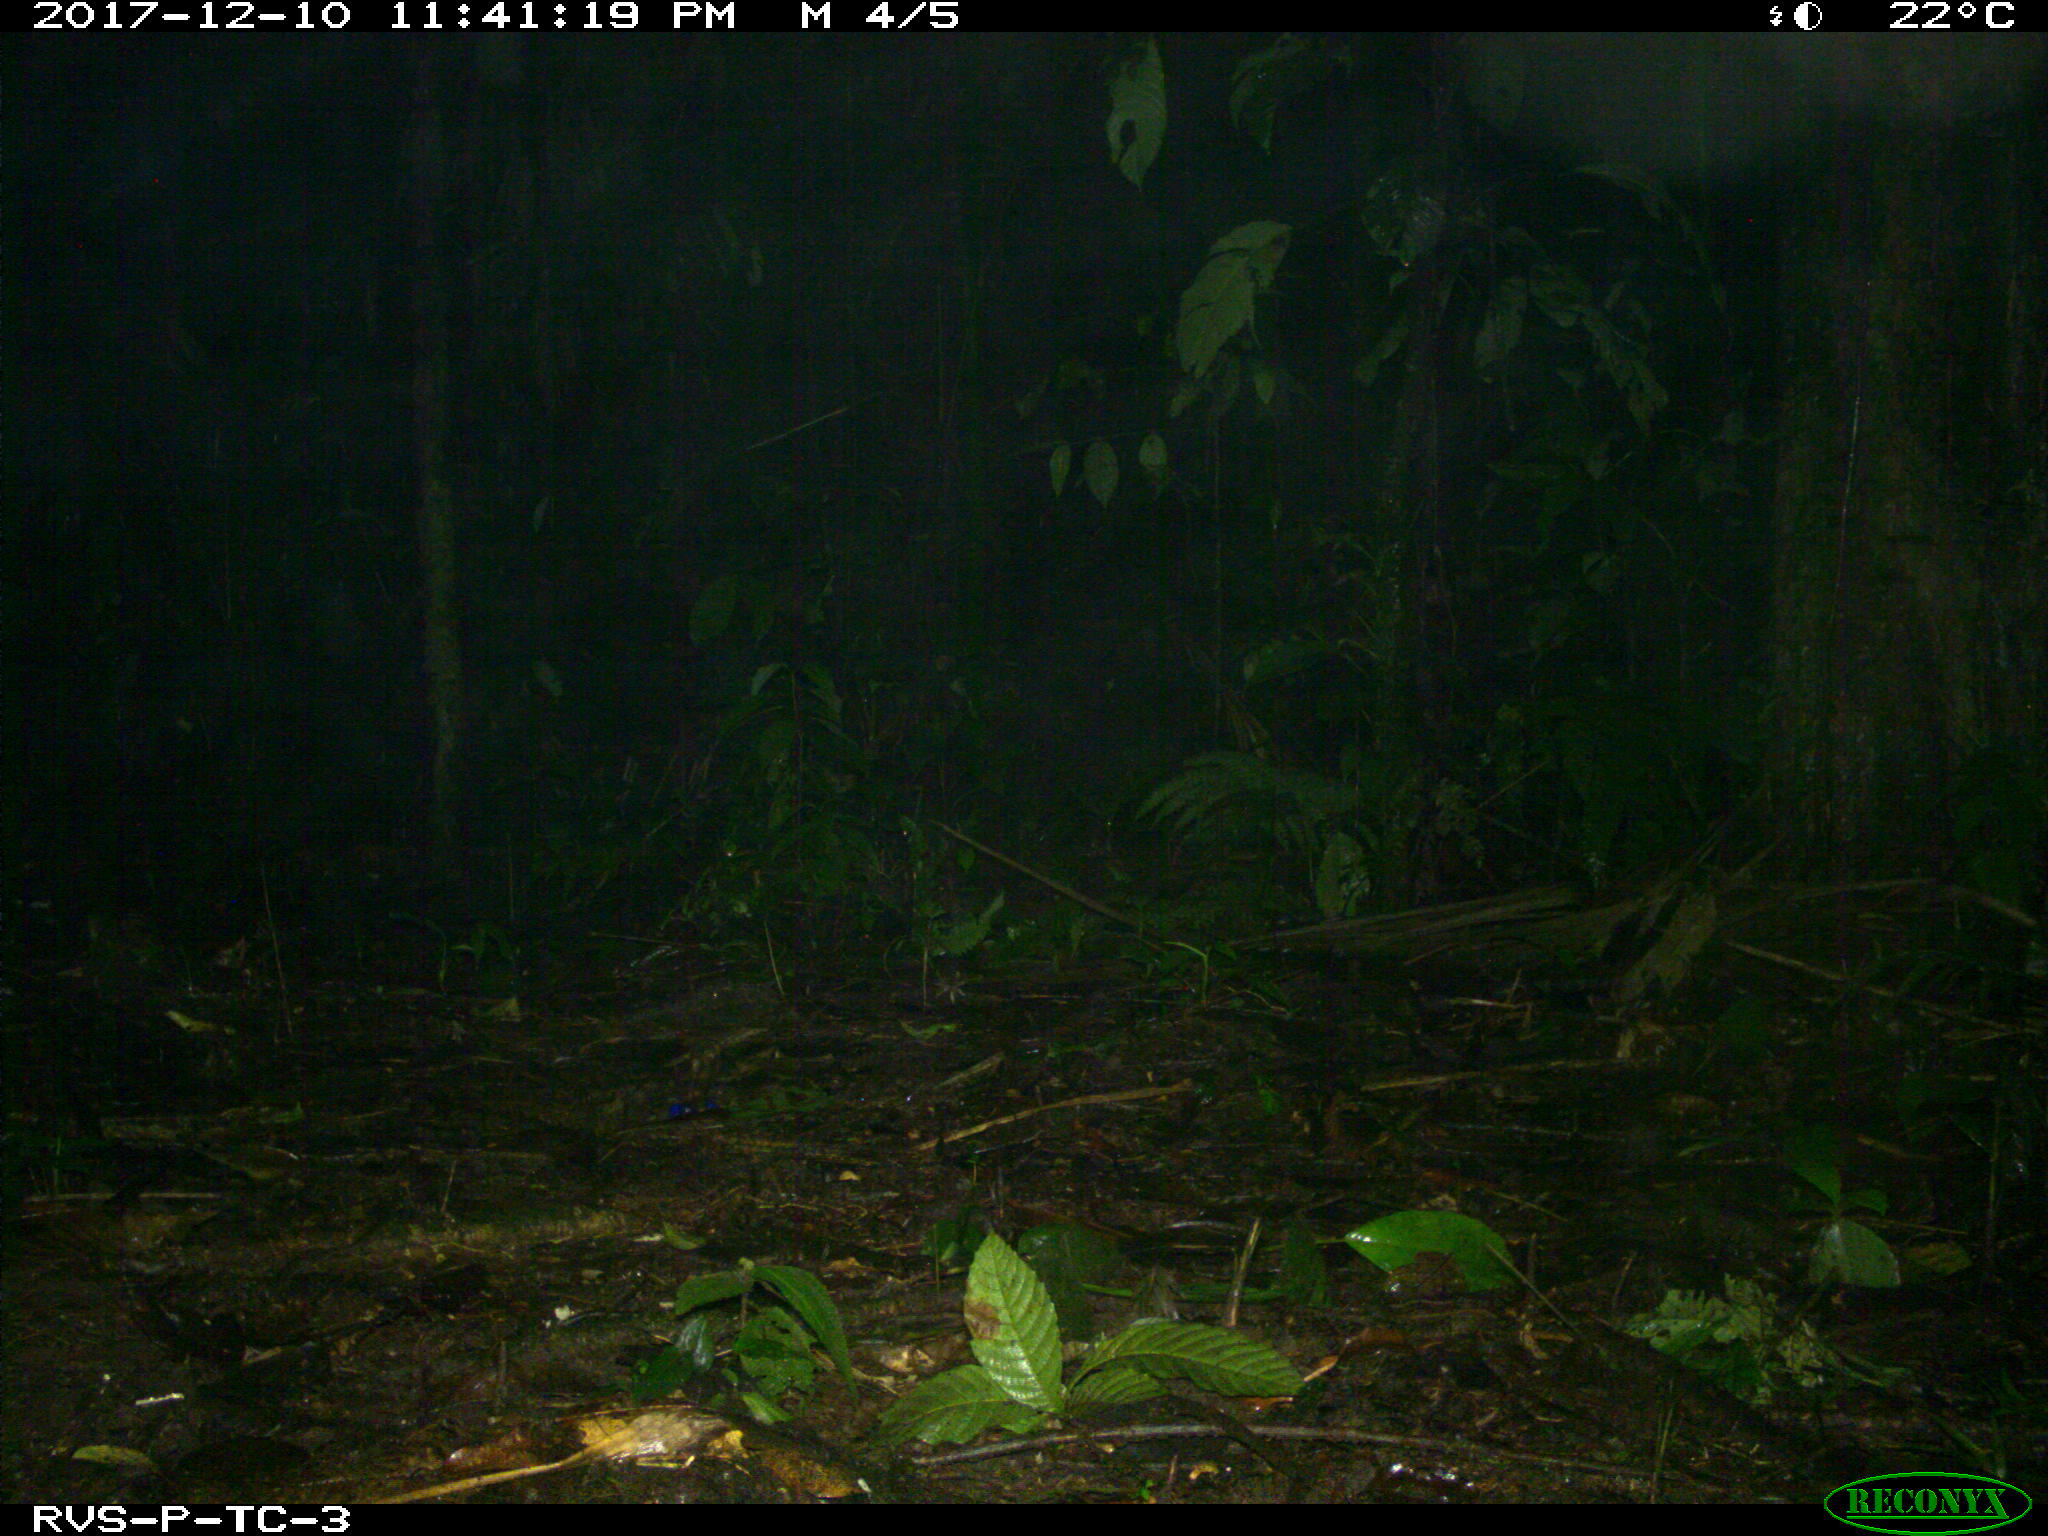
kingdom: Animalia
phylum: Chordata
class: Mammalia
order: Rodentia
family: Echimyidae
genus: Proechimys
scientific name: Proechimys
